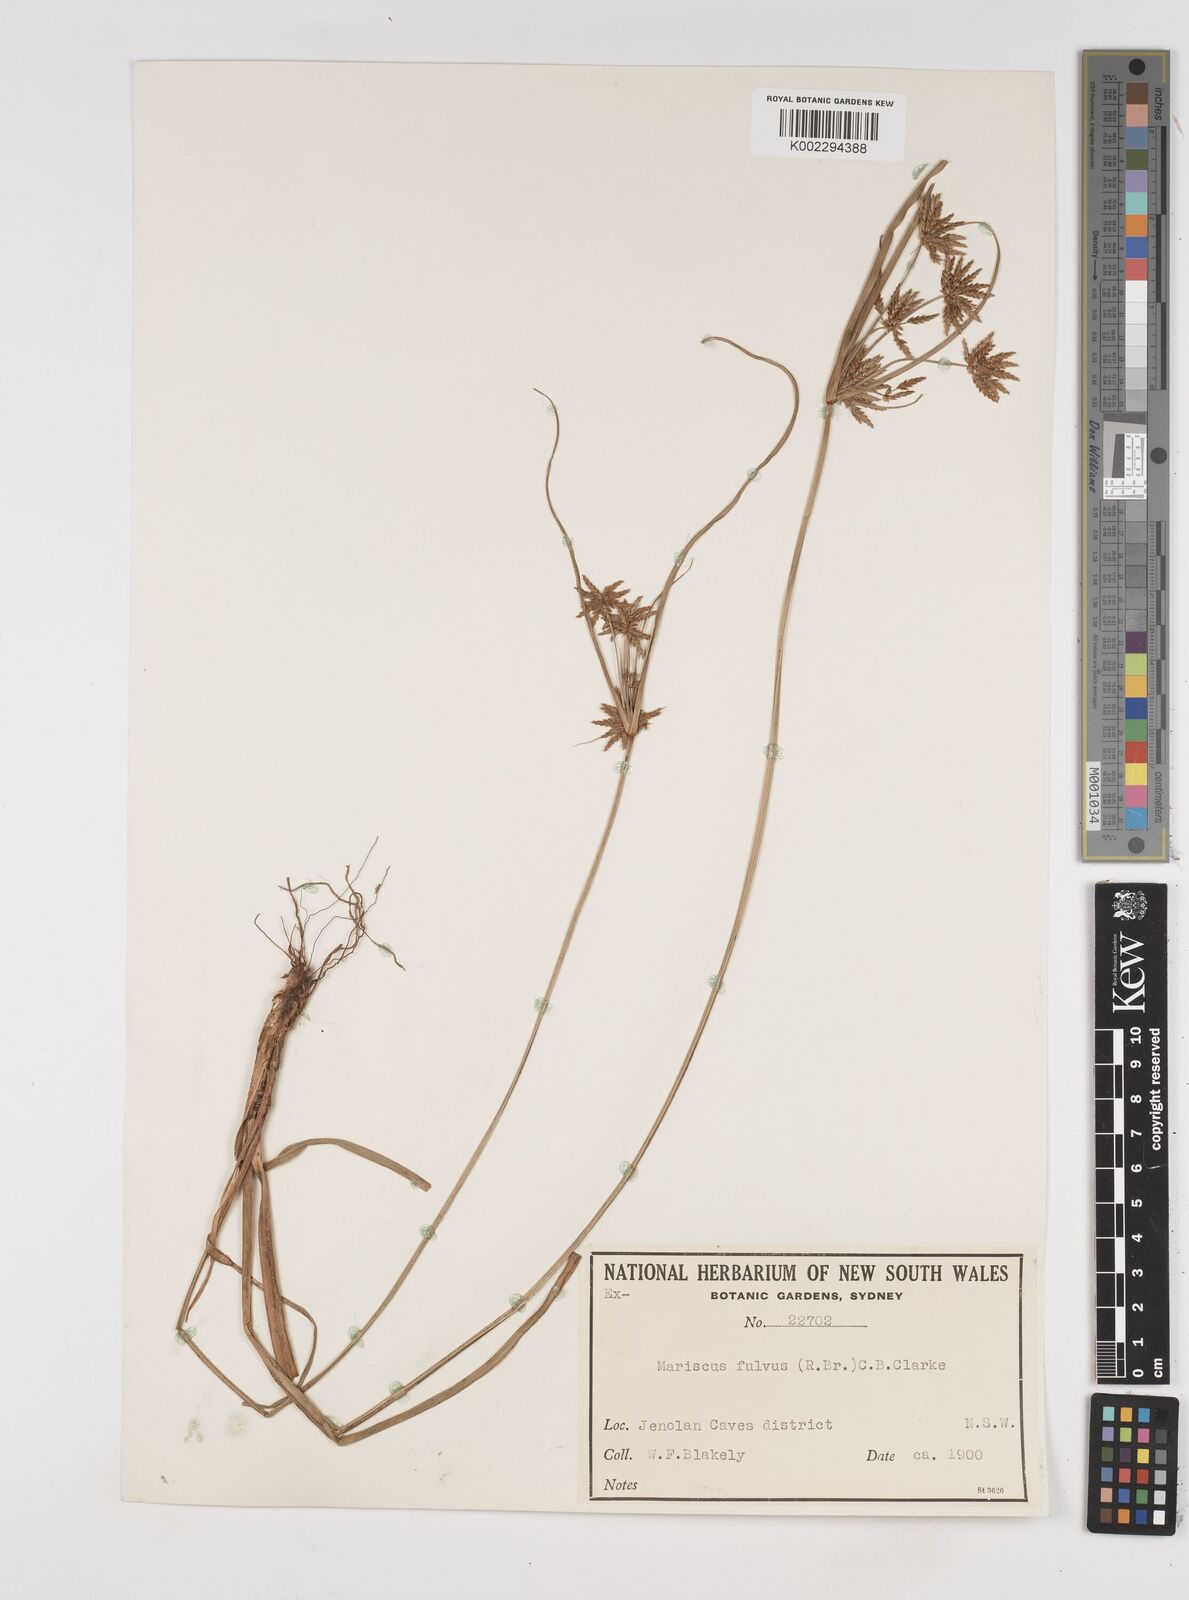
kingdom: Plantae
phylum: Tracheophyta
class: Liliopsida
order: Poales
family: Cyperaceae
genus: Cyperus
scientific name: Cyperus fulvus
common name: Sticky sedge
